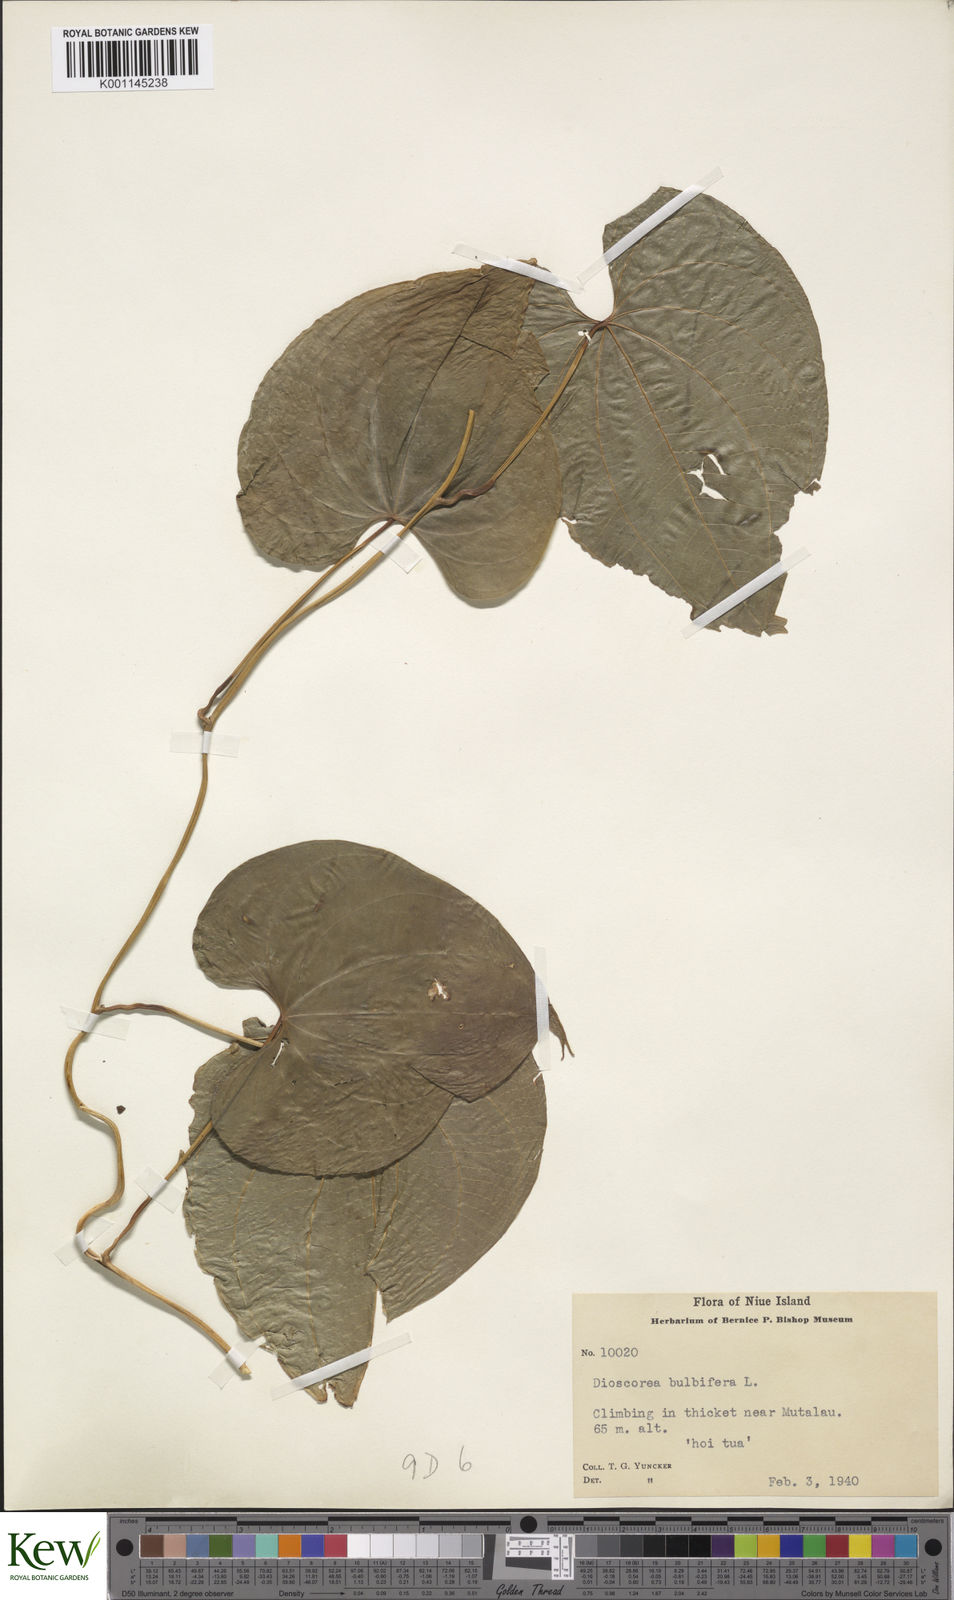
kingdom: Plantae
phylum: Tracheophyta
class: Liliopsida
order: Dioscoreales
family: Dioscoreaceae
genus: Dioscorea
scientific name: Dioscorea bulbifera
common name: Air yam
